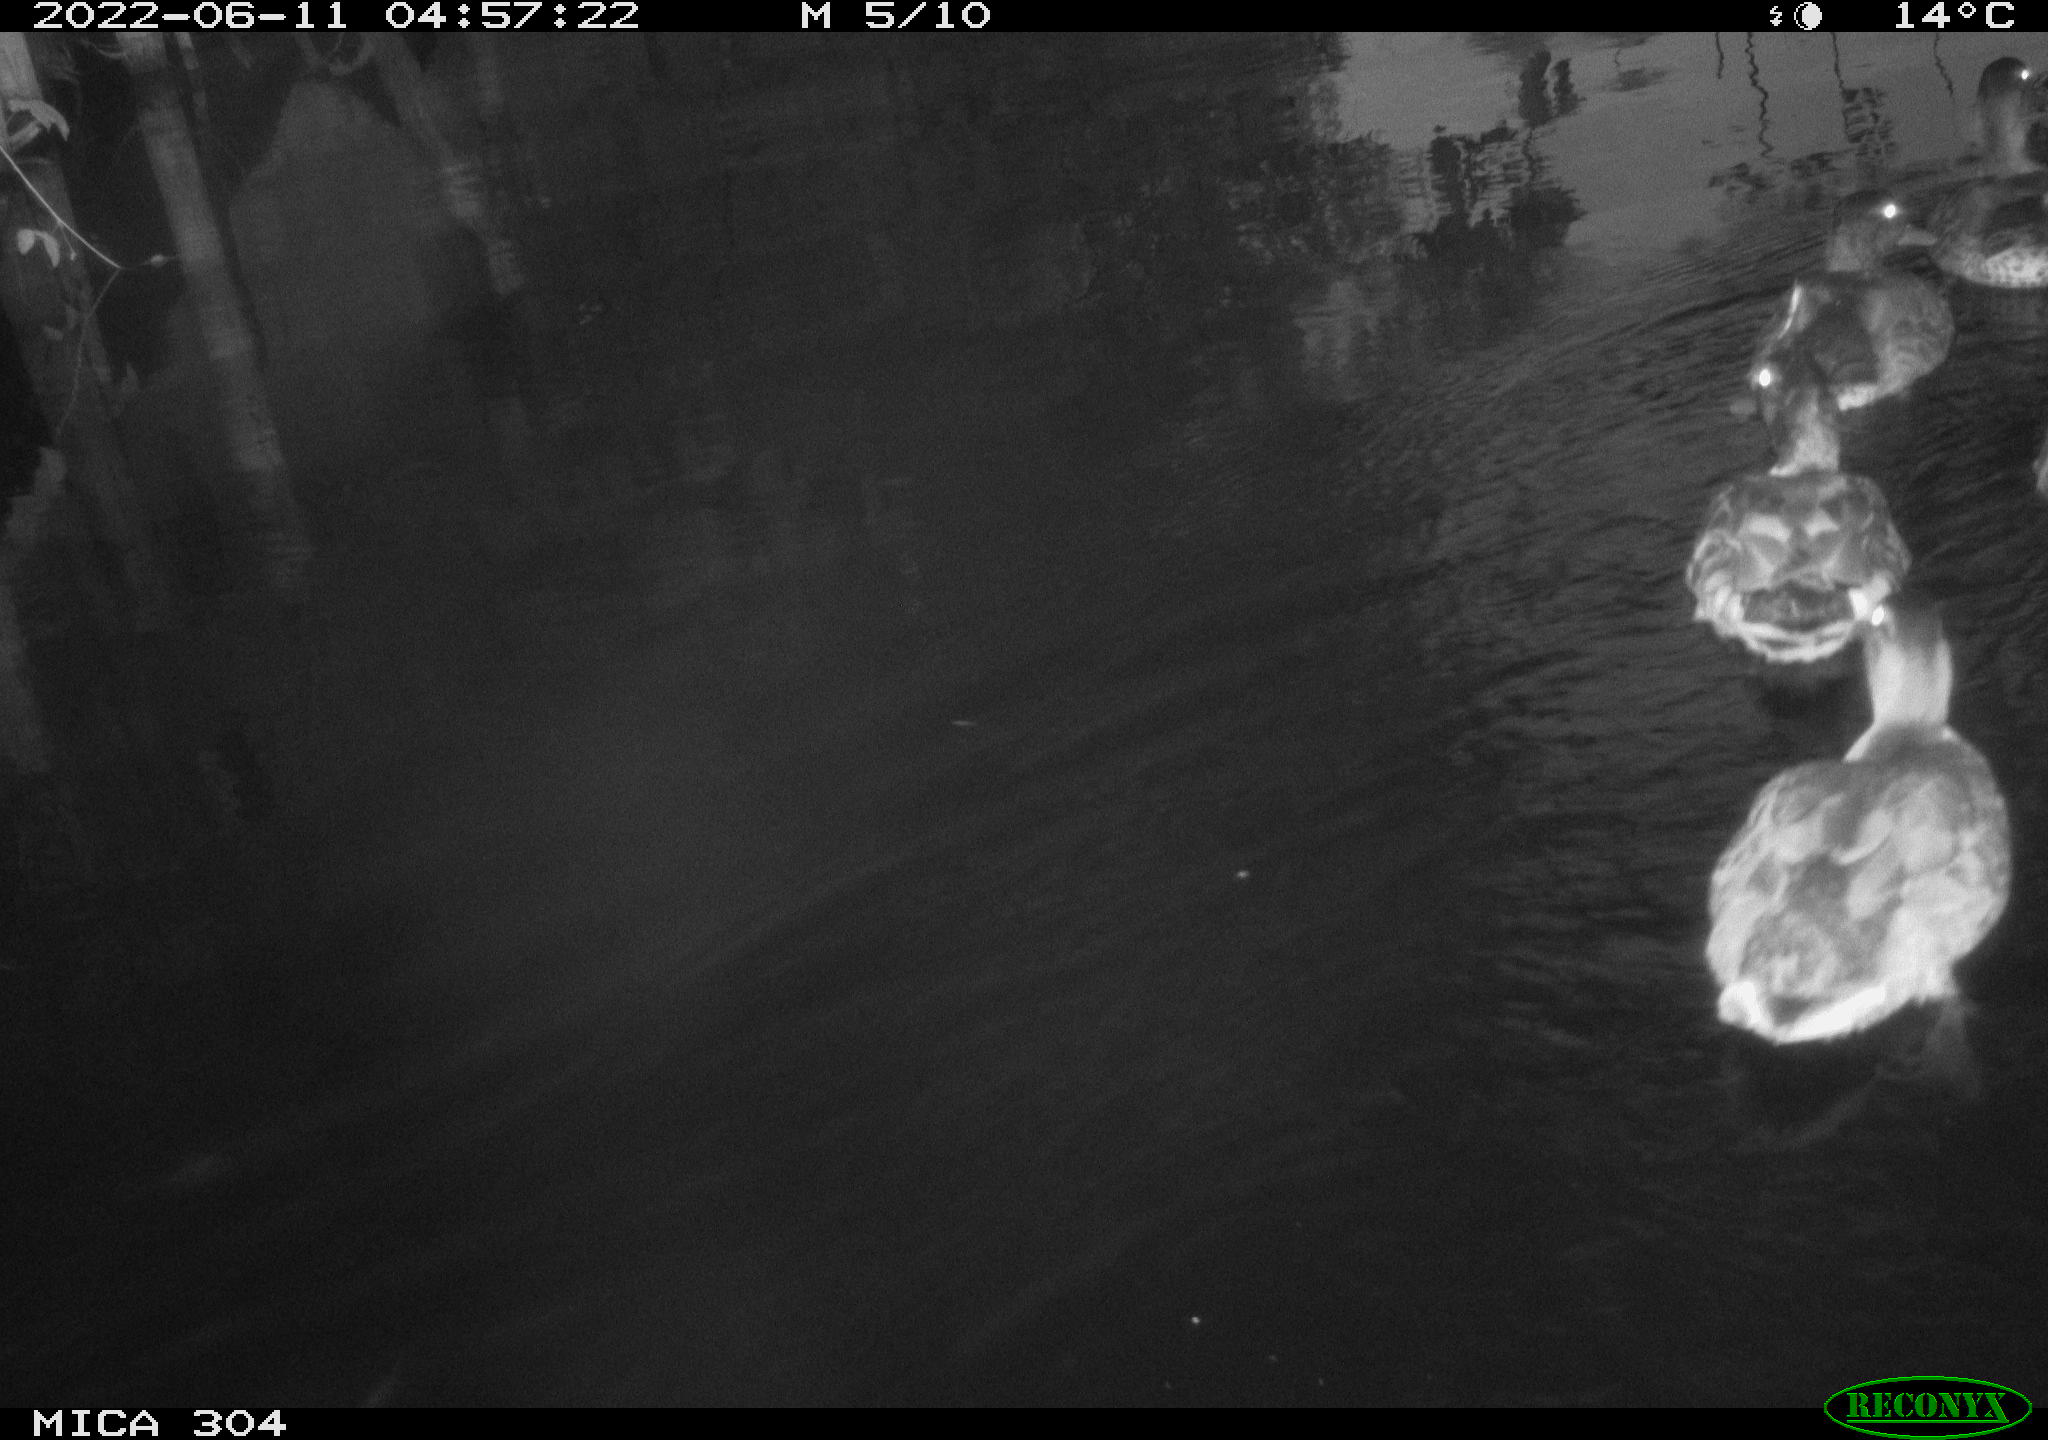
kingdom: Animalia
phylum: Chordata
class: Aves
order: Anseriformes
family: Anatidae
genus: Anas
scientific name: Anas platyrhynchos
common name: Mallard
